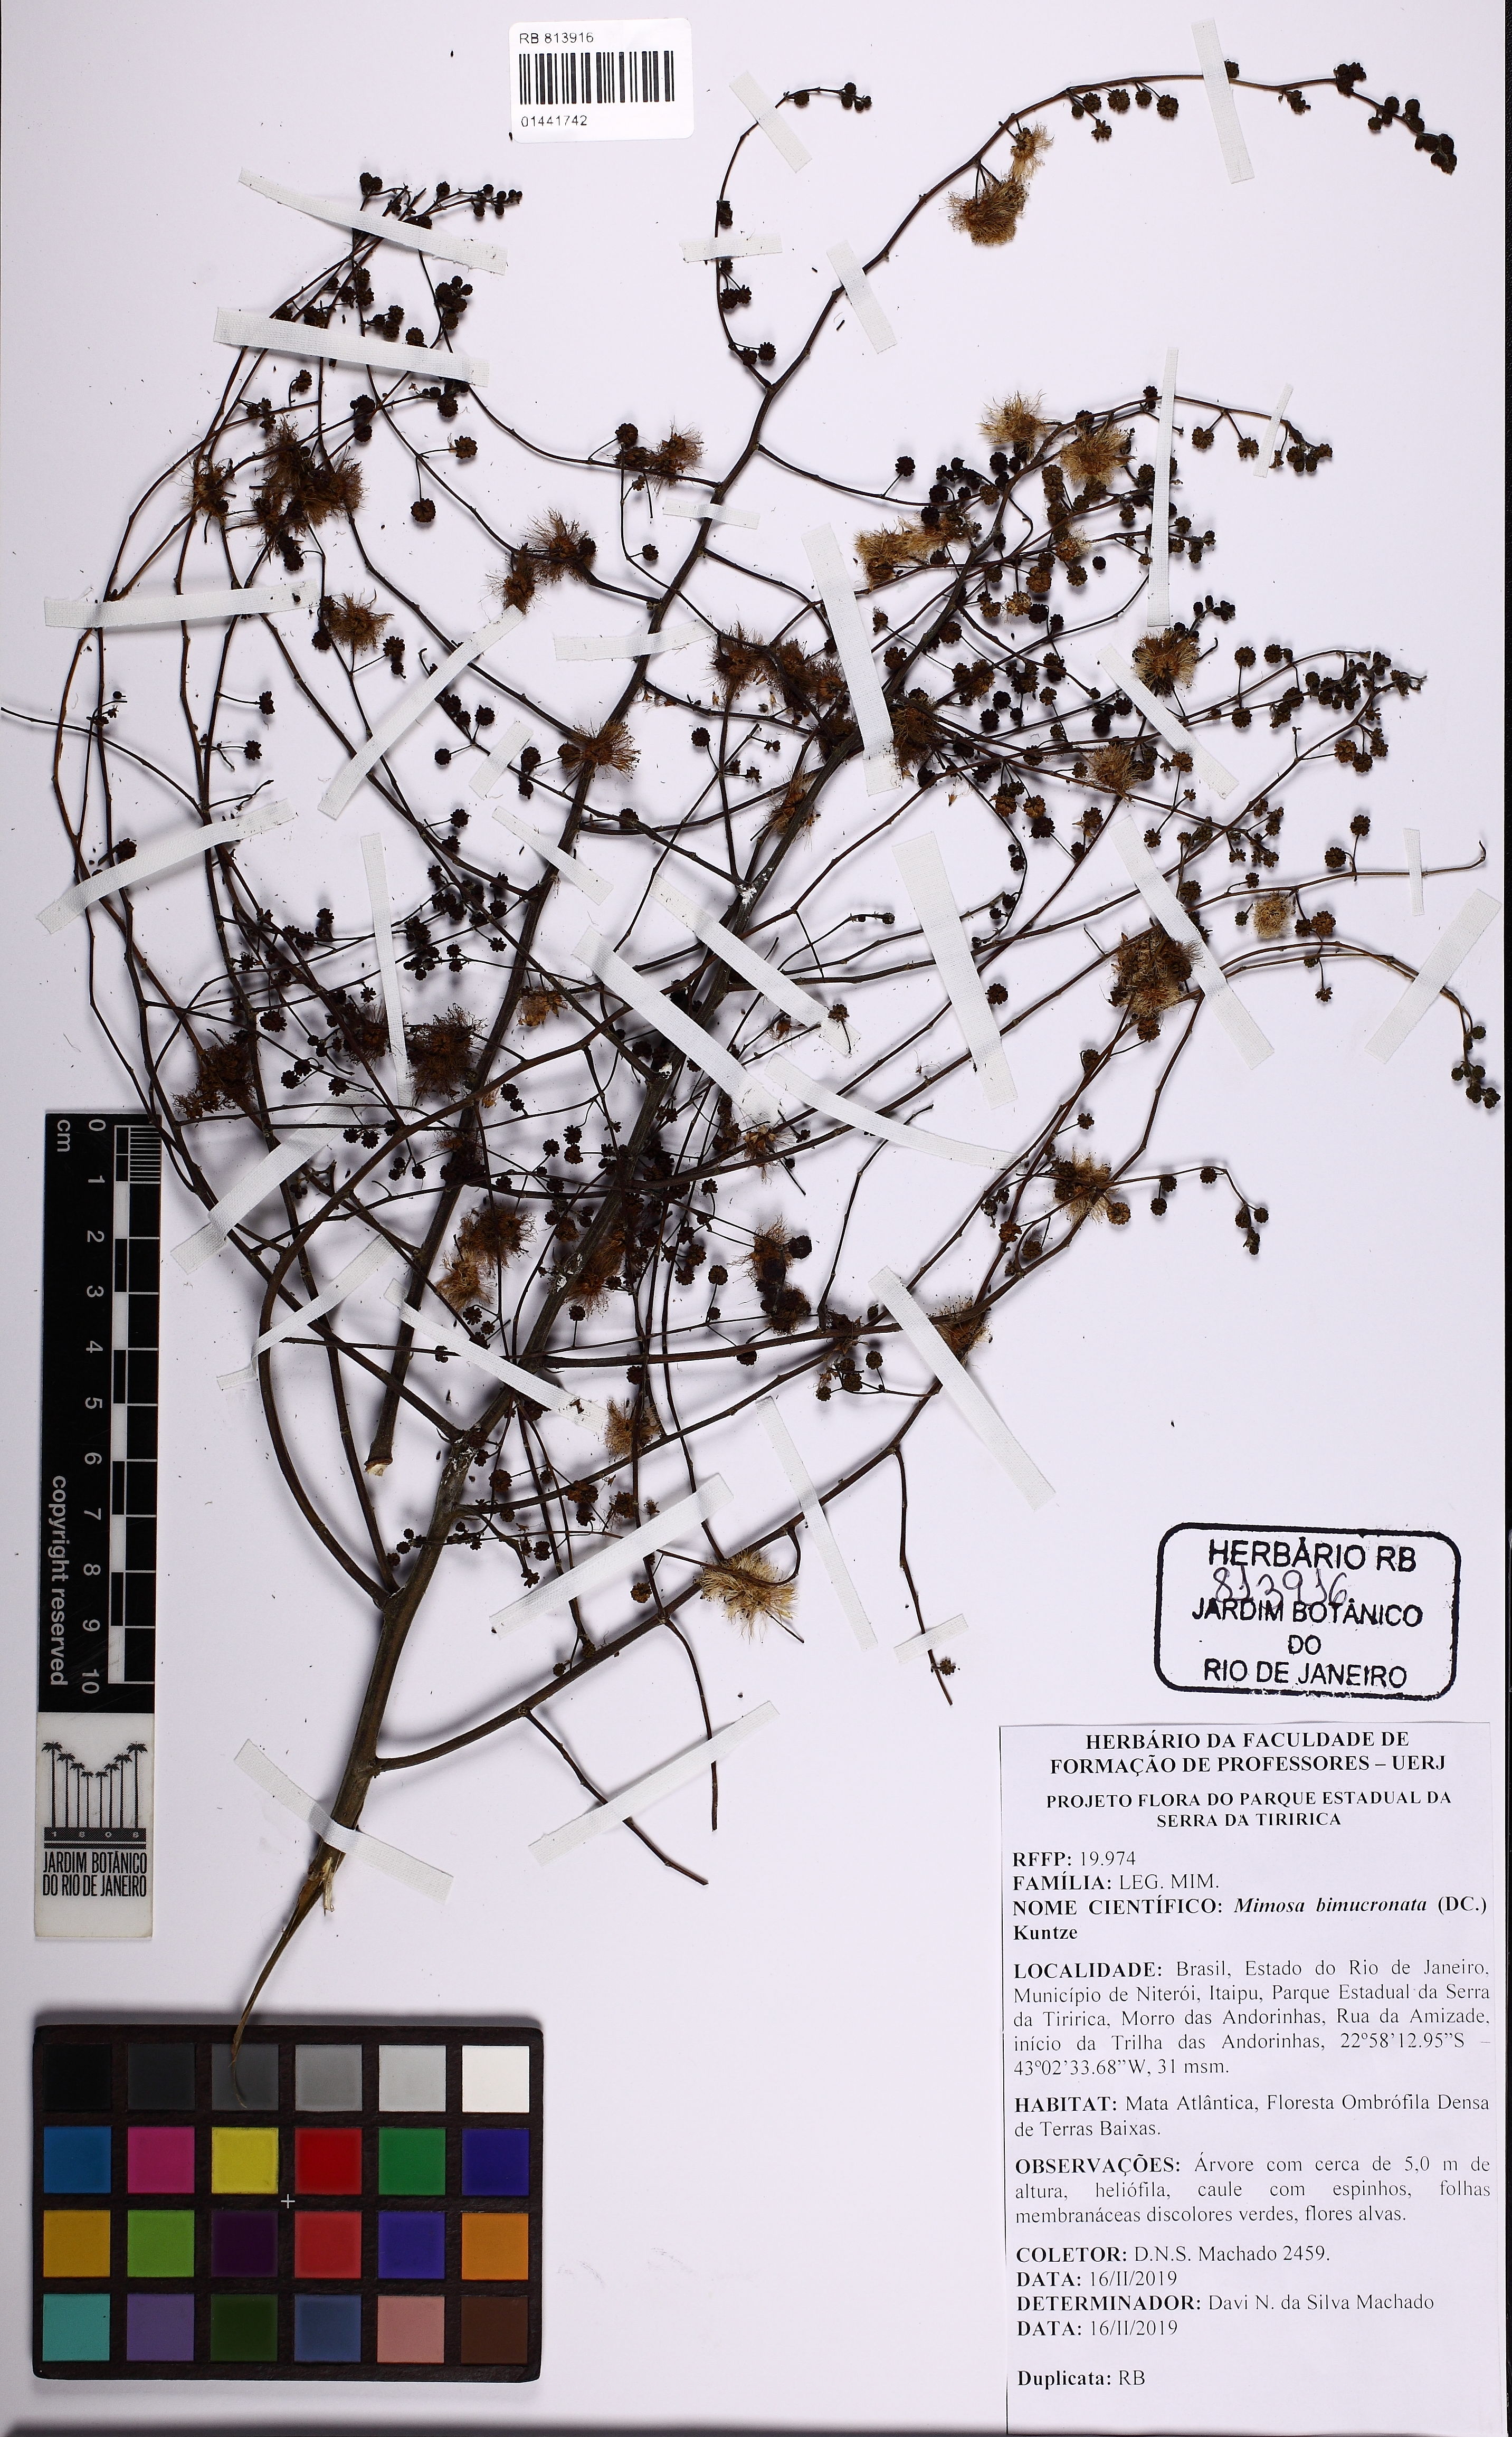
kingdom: Plantae
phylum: Tracheophyta
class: Magnoliopsida
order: Fabales
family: Fabaceae
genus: Mimosa
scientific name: Mimosa bimucronata
